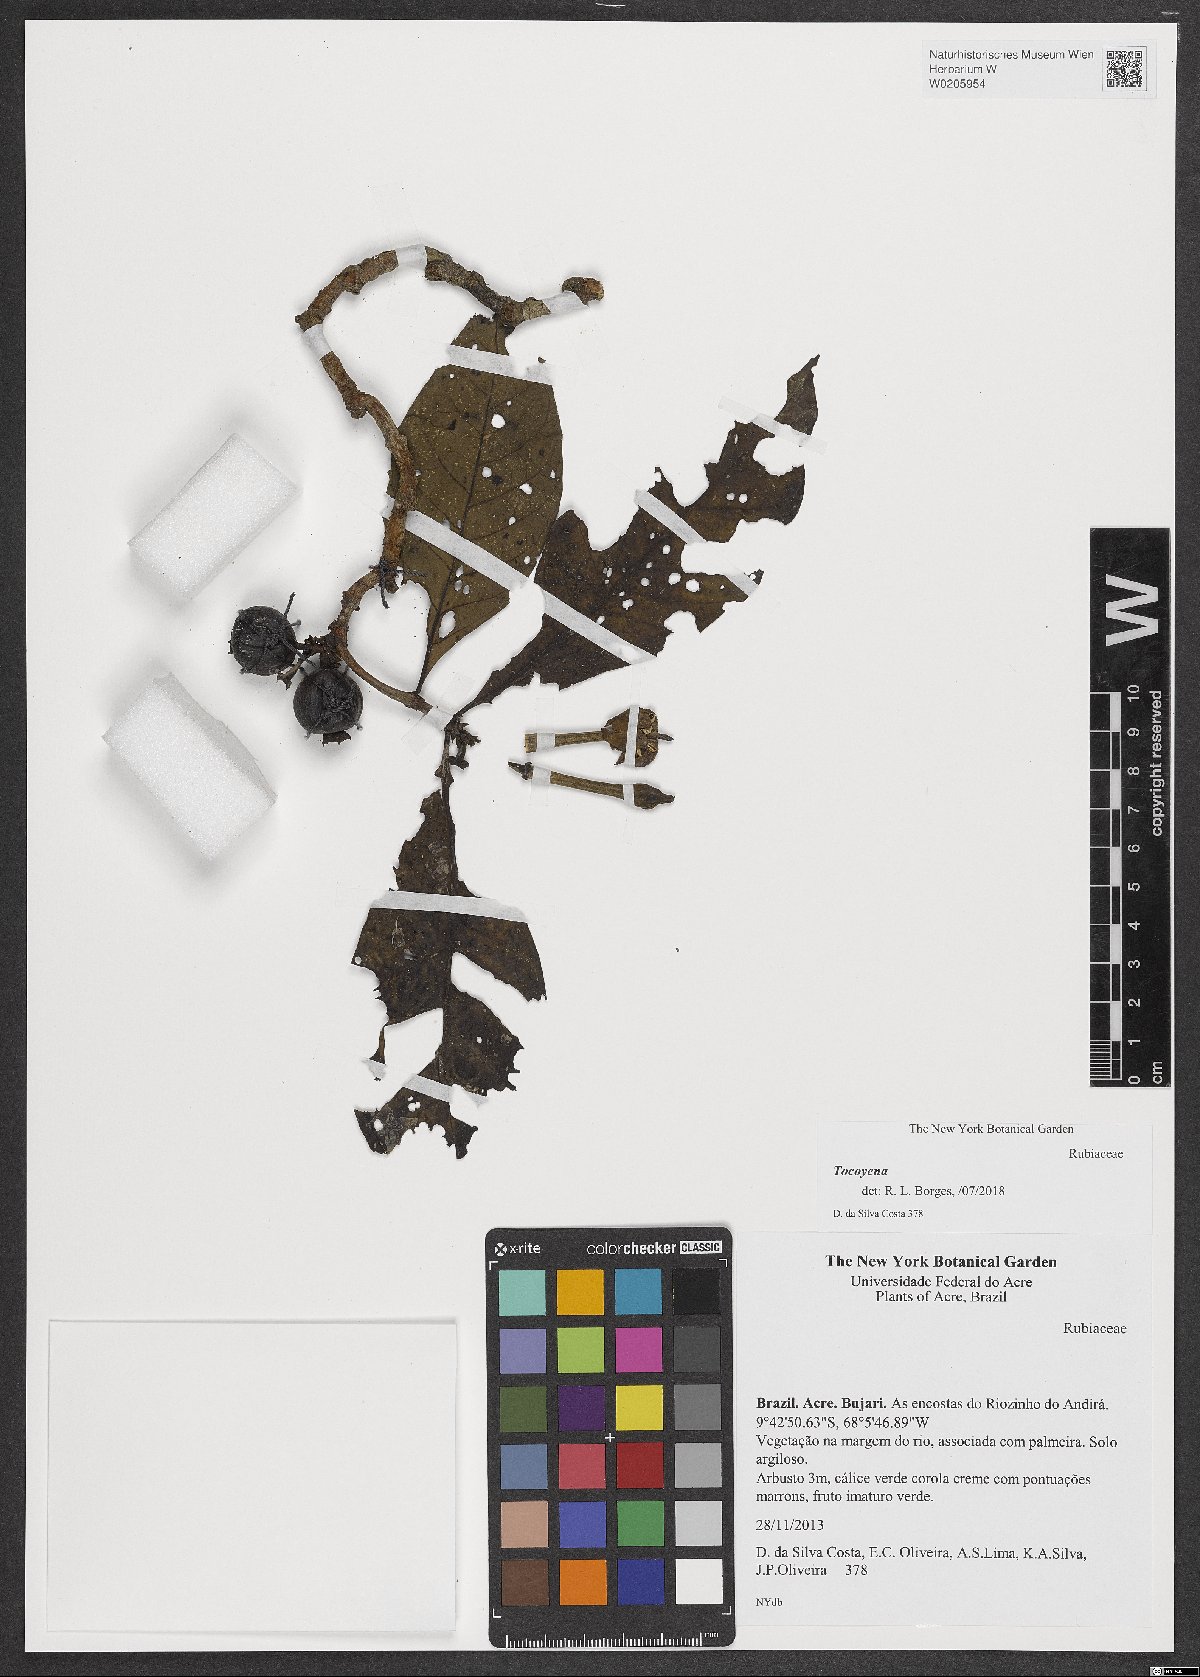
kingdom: Plantae
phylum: Tracheophyta
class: Magnoliopsida
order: Gentianales
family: Rubiaceae
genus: Tocoyena
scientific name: Tocoyena
